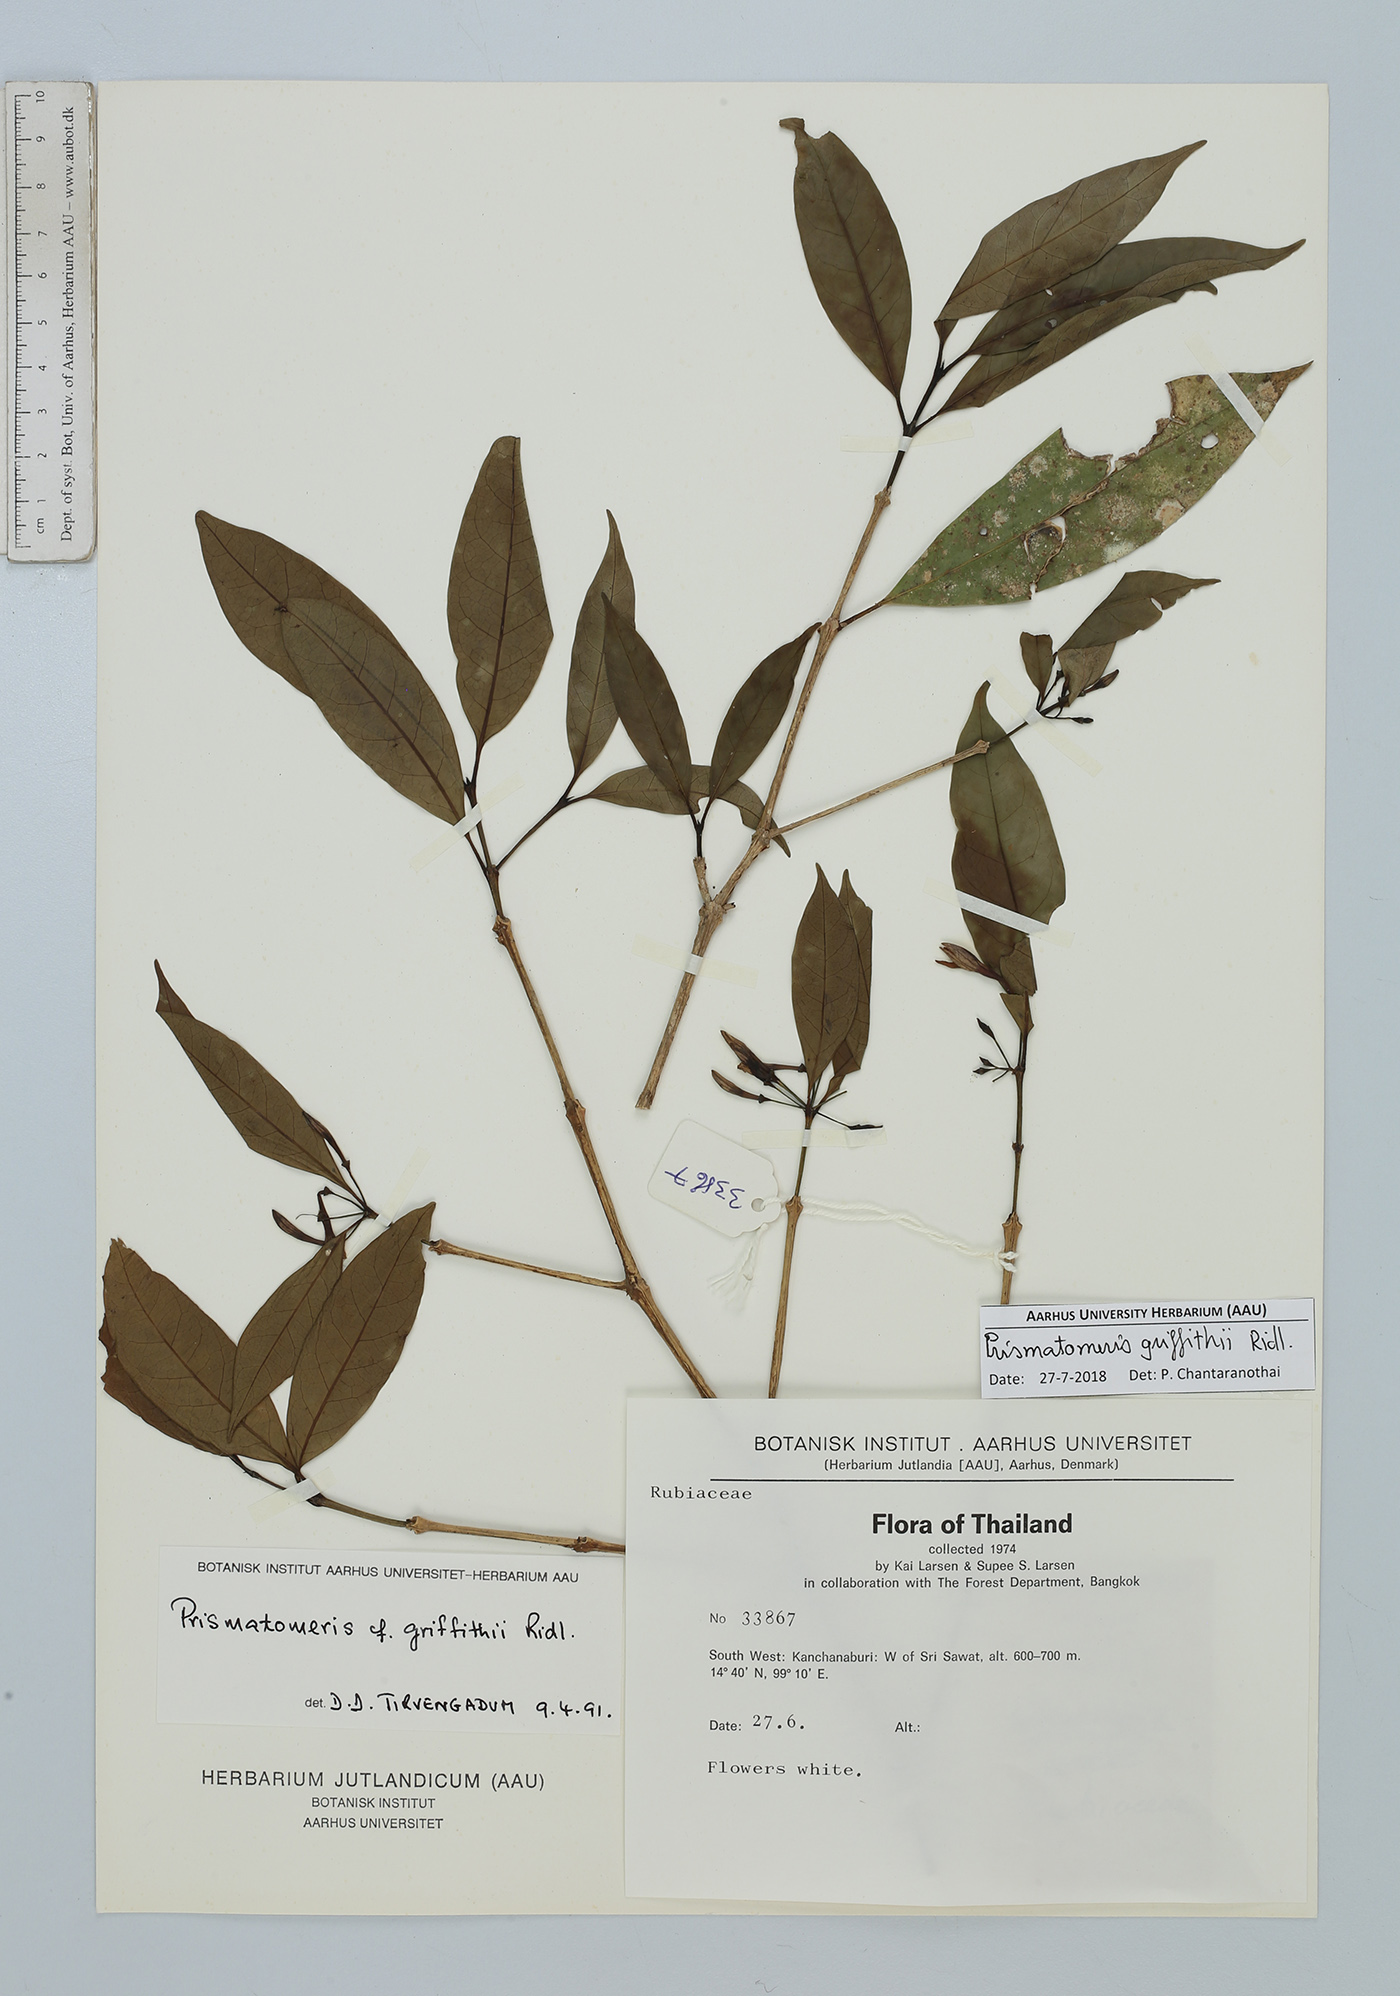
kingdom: Plantae
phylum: Tracheophyta
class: Magnoliopsida
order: Gentianales
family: Rubiaceae
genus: Prismatomeris
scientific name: Prismatomeris griffithii
